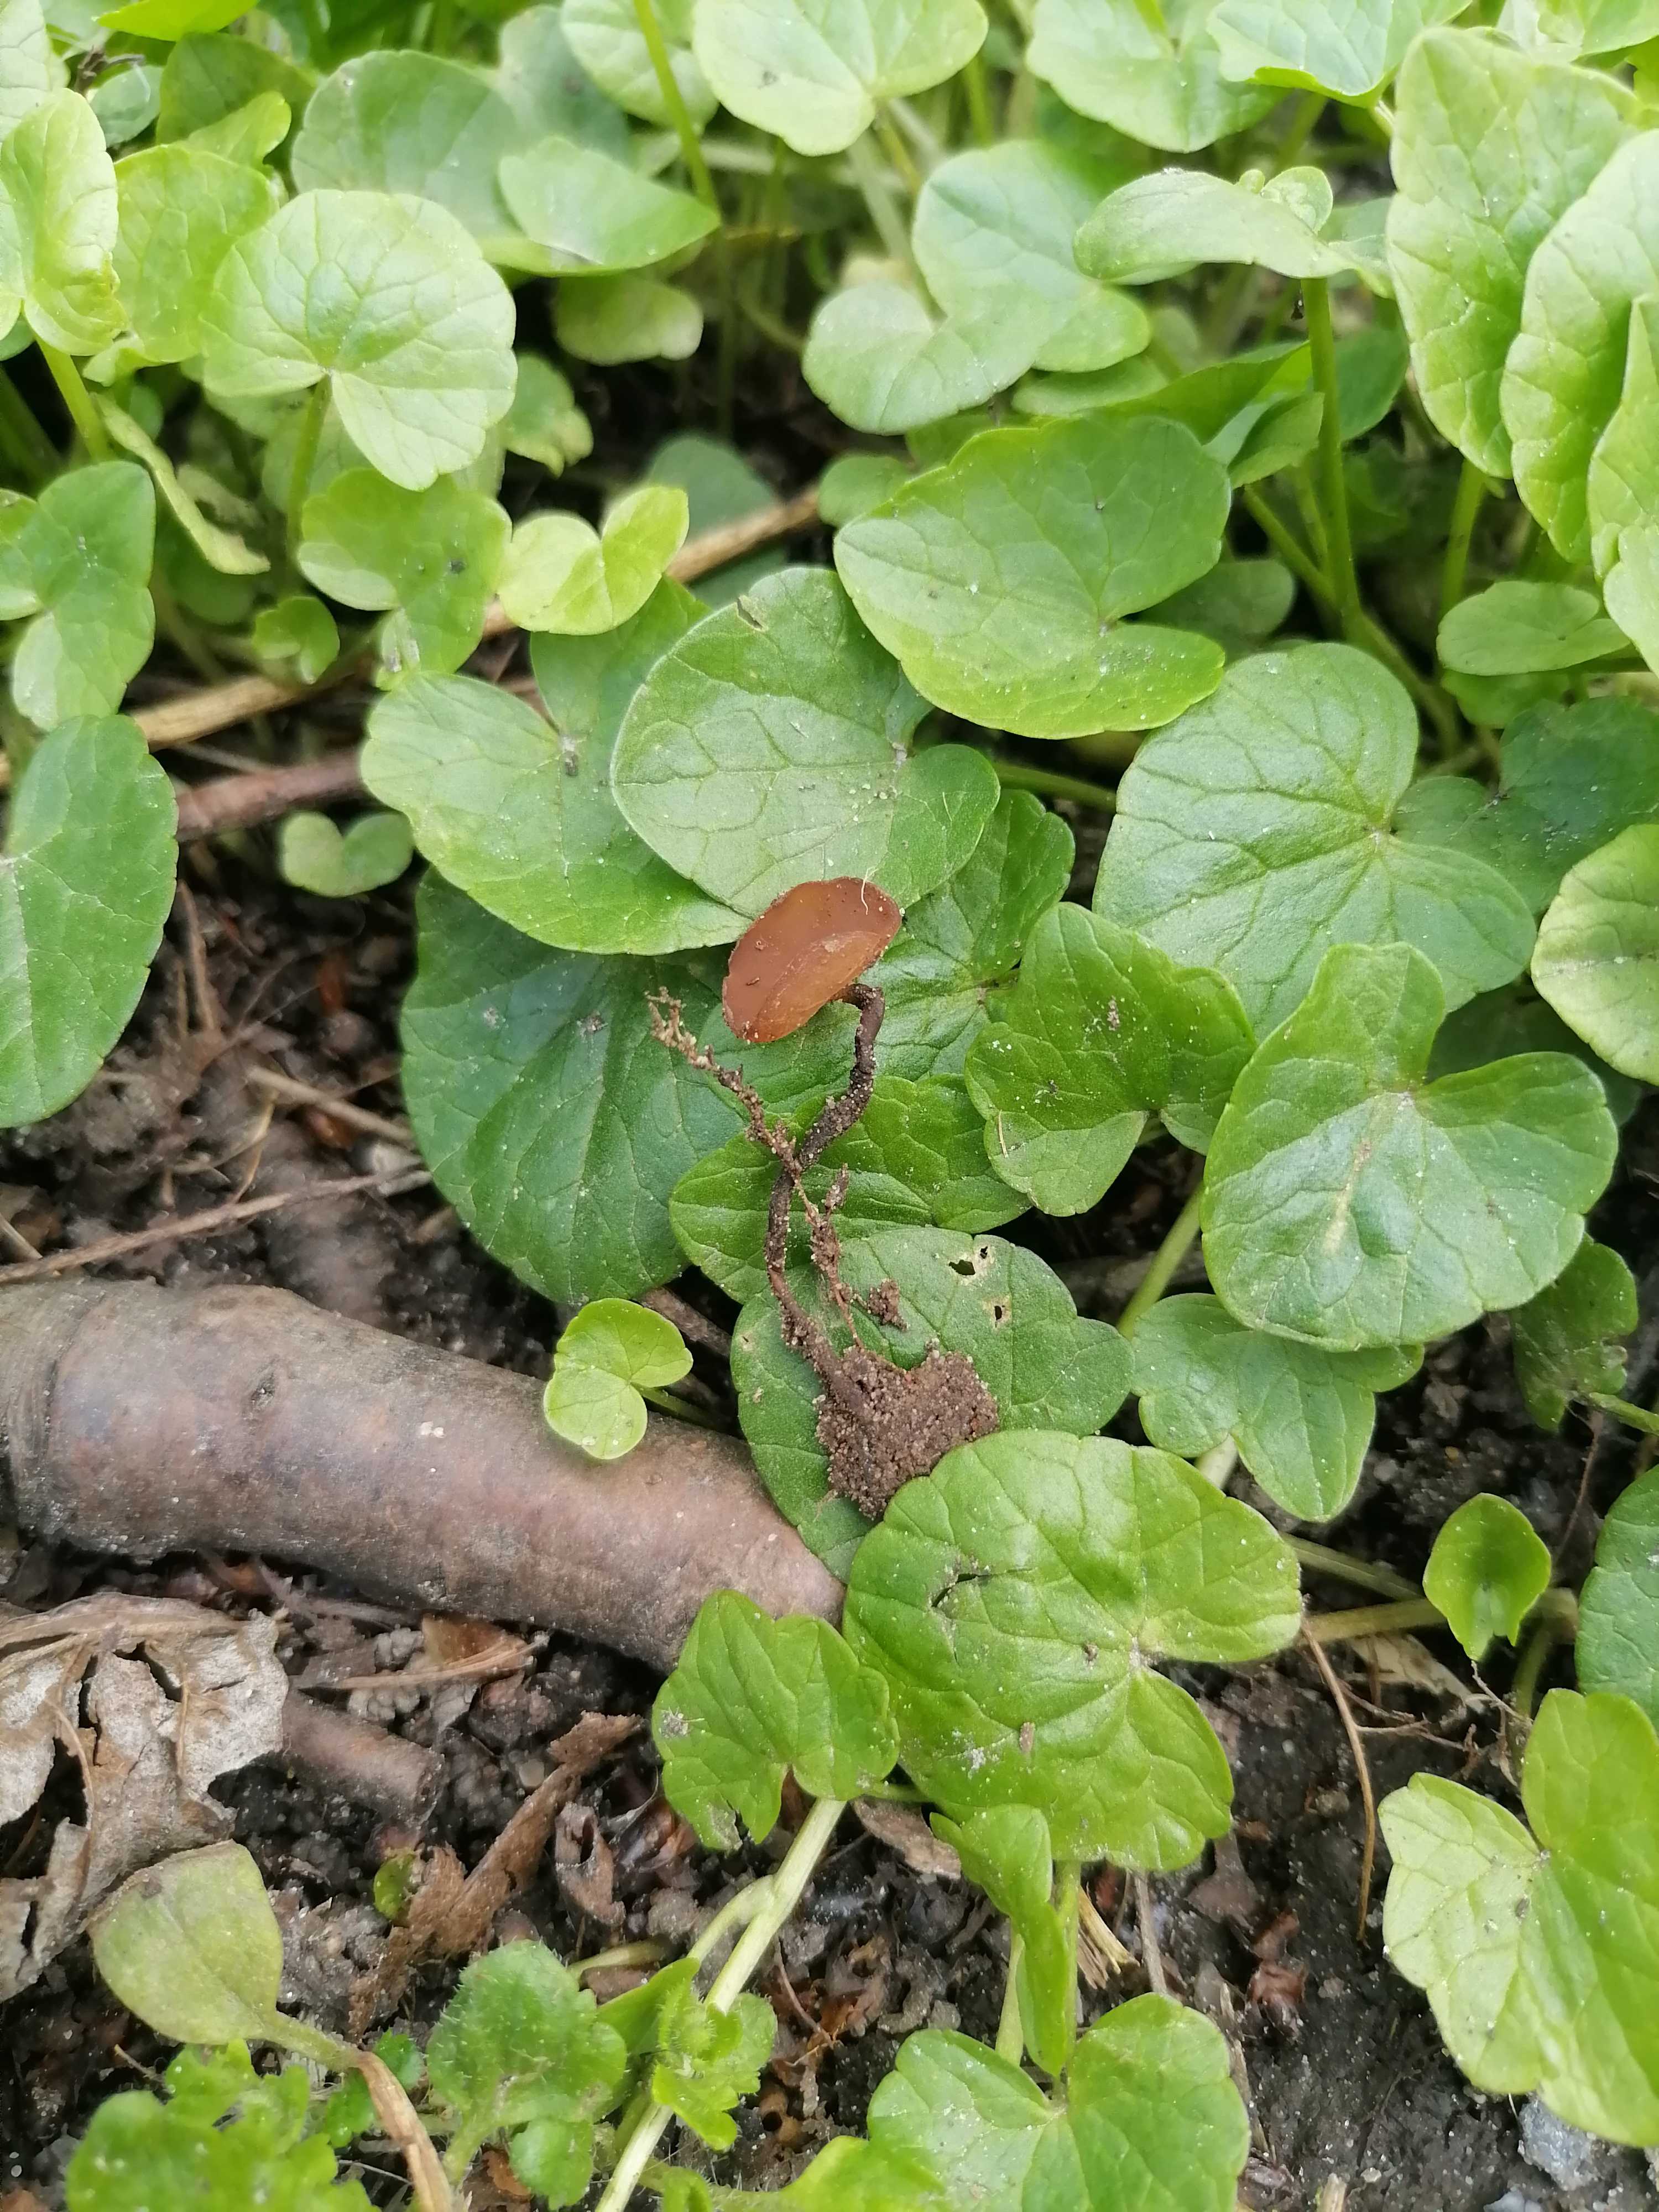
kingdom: Fungi
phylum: Ascomycota
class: Leotiomycetes
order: Helotiales
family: Sclerotiniaceae
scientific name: Sclerotiniaceae
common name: knoldskivefamilien
